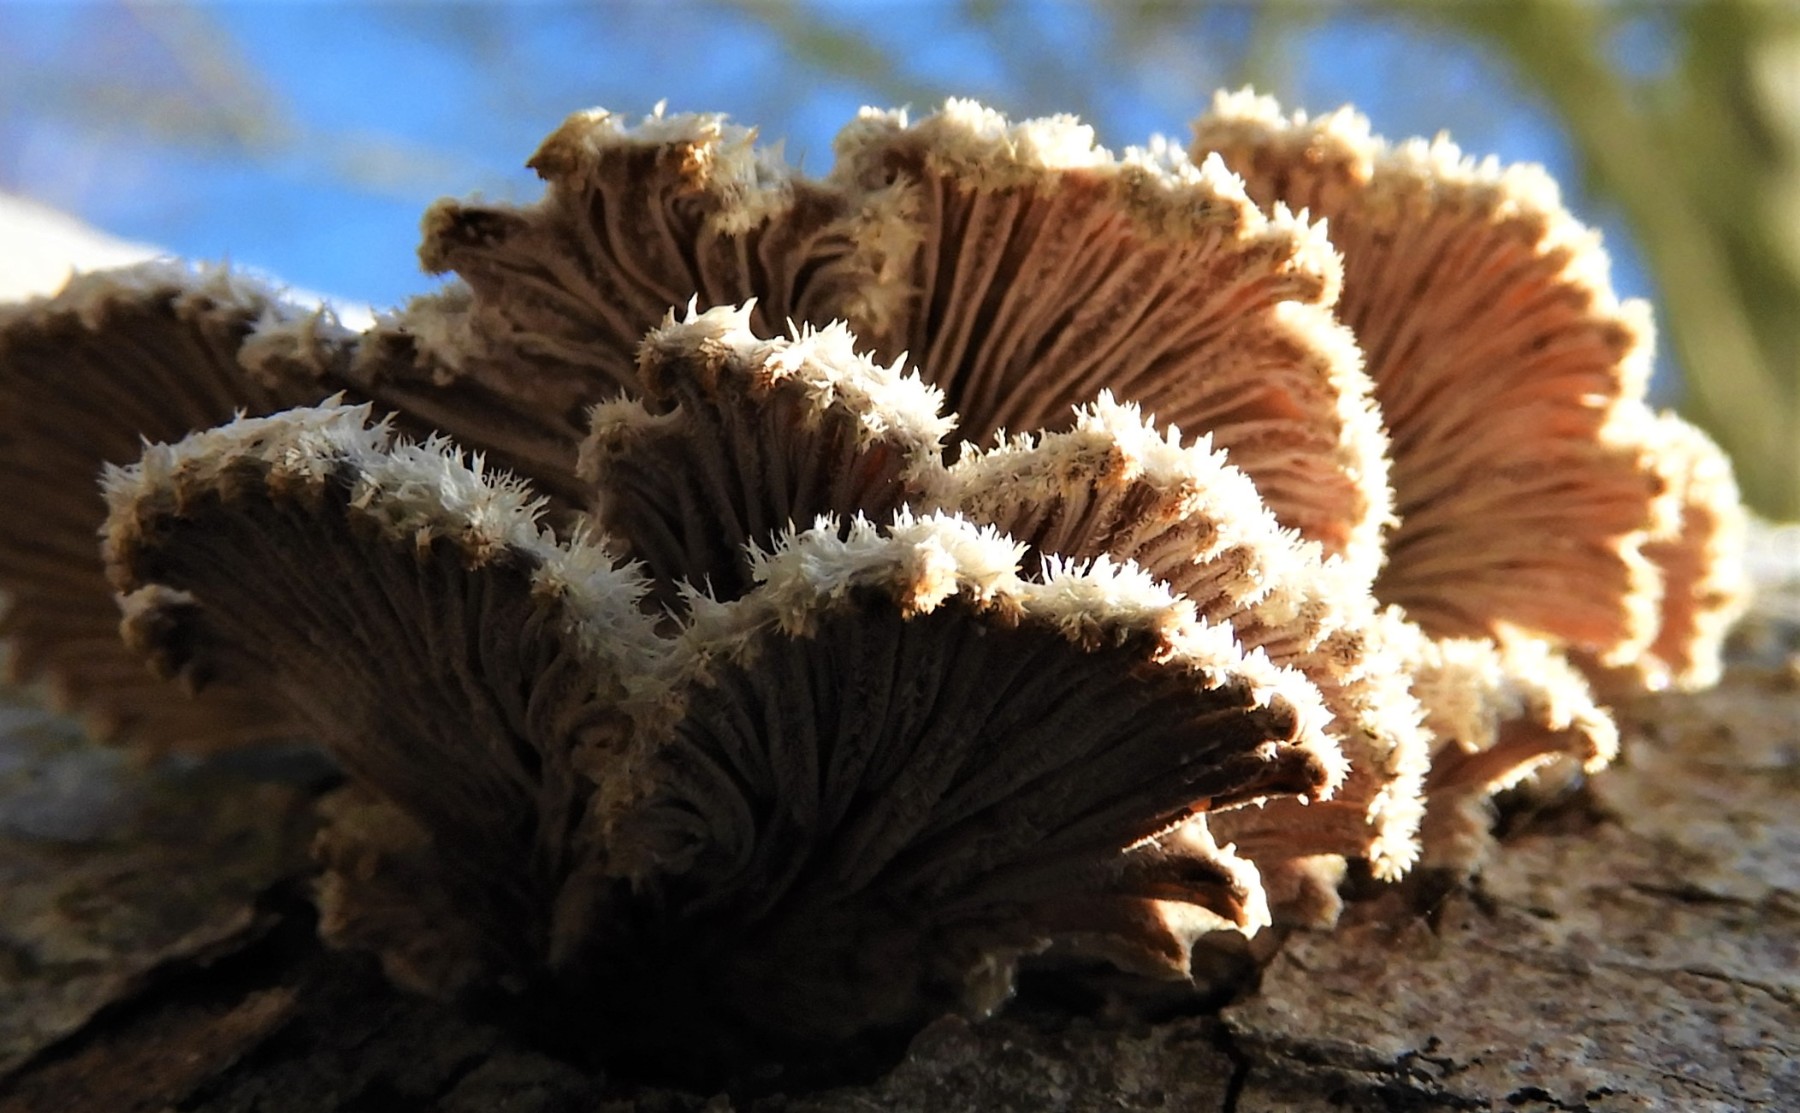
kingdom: Fungi
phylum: Basidiomycota
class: Agaricomycetes
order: Agaricales
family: Schizophyllaceae
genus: Schizophyllum
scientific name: Schizophyllum commune
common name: kløvblad
